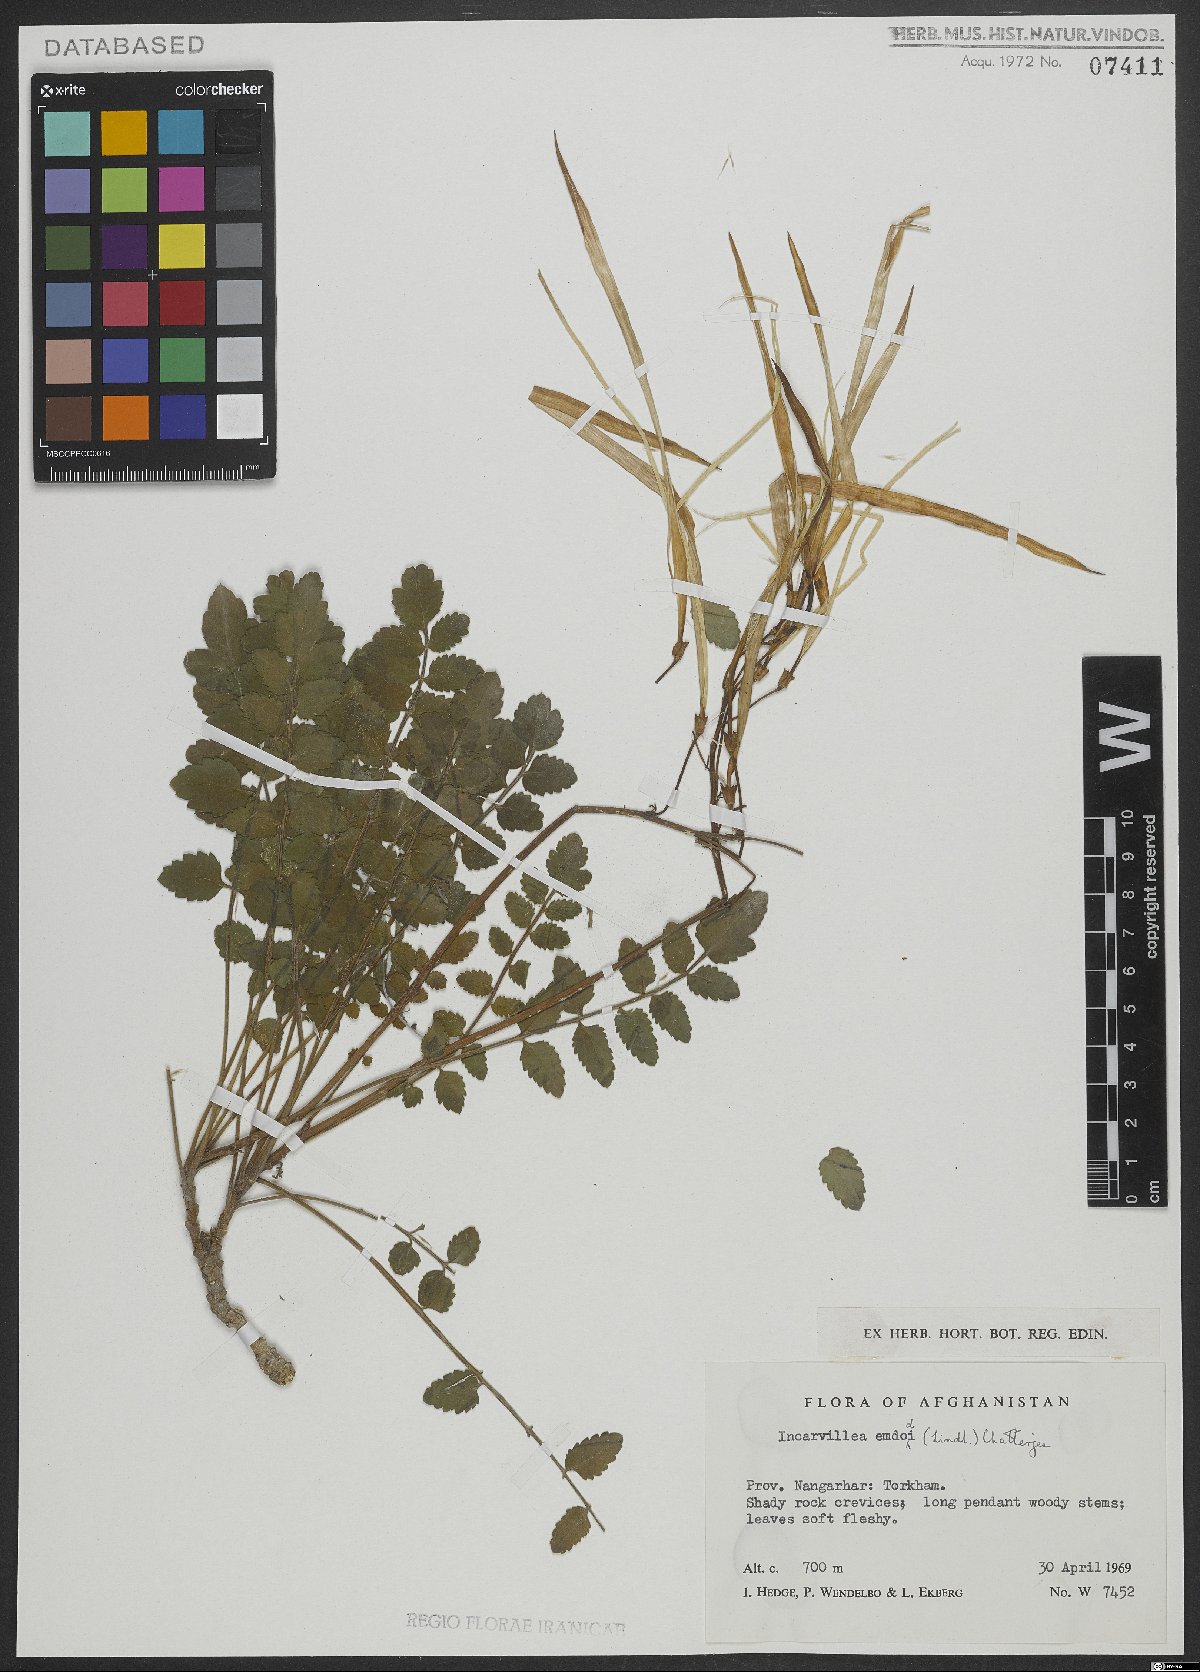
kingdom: Plantae
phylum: Tracheophyta
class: Magnoliopsida
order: Lamiales
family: Bignoniaceae
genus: Incarvillea
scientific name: Incarvillea emodi
